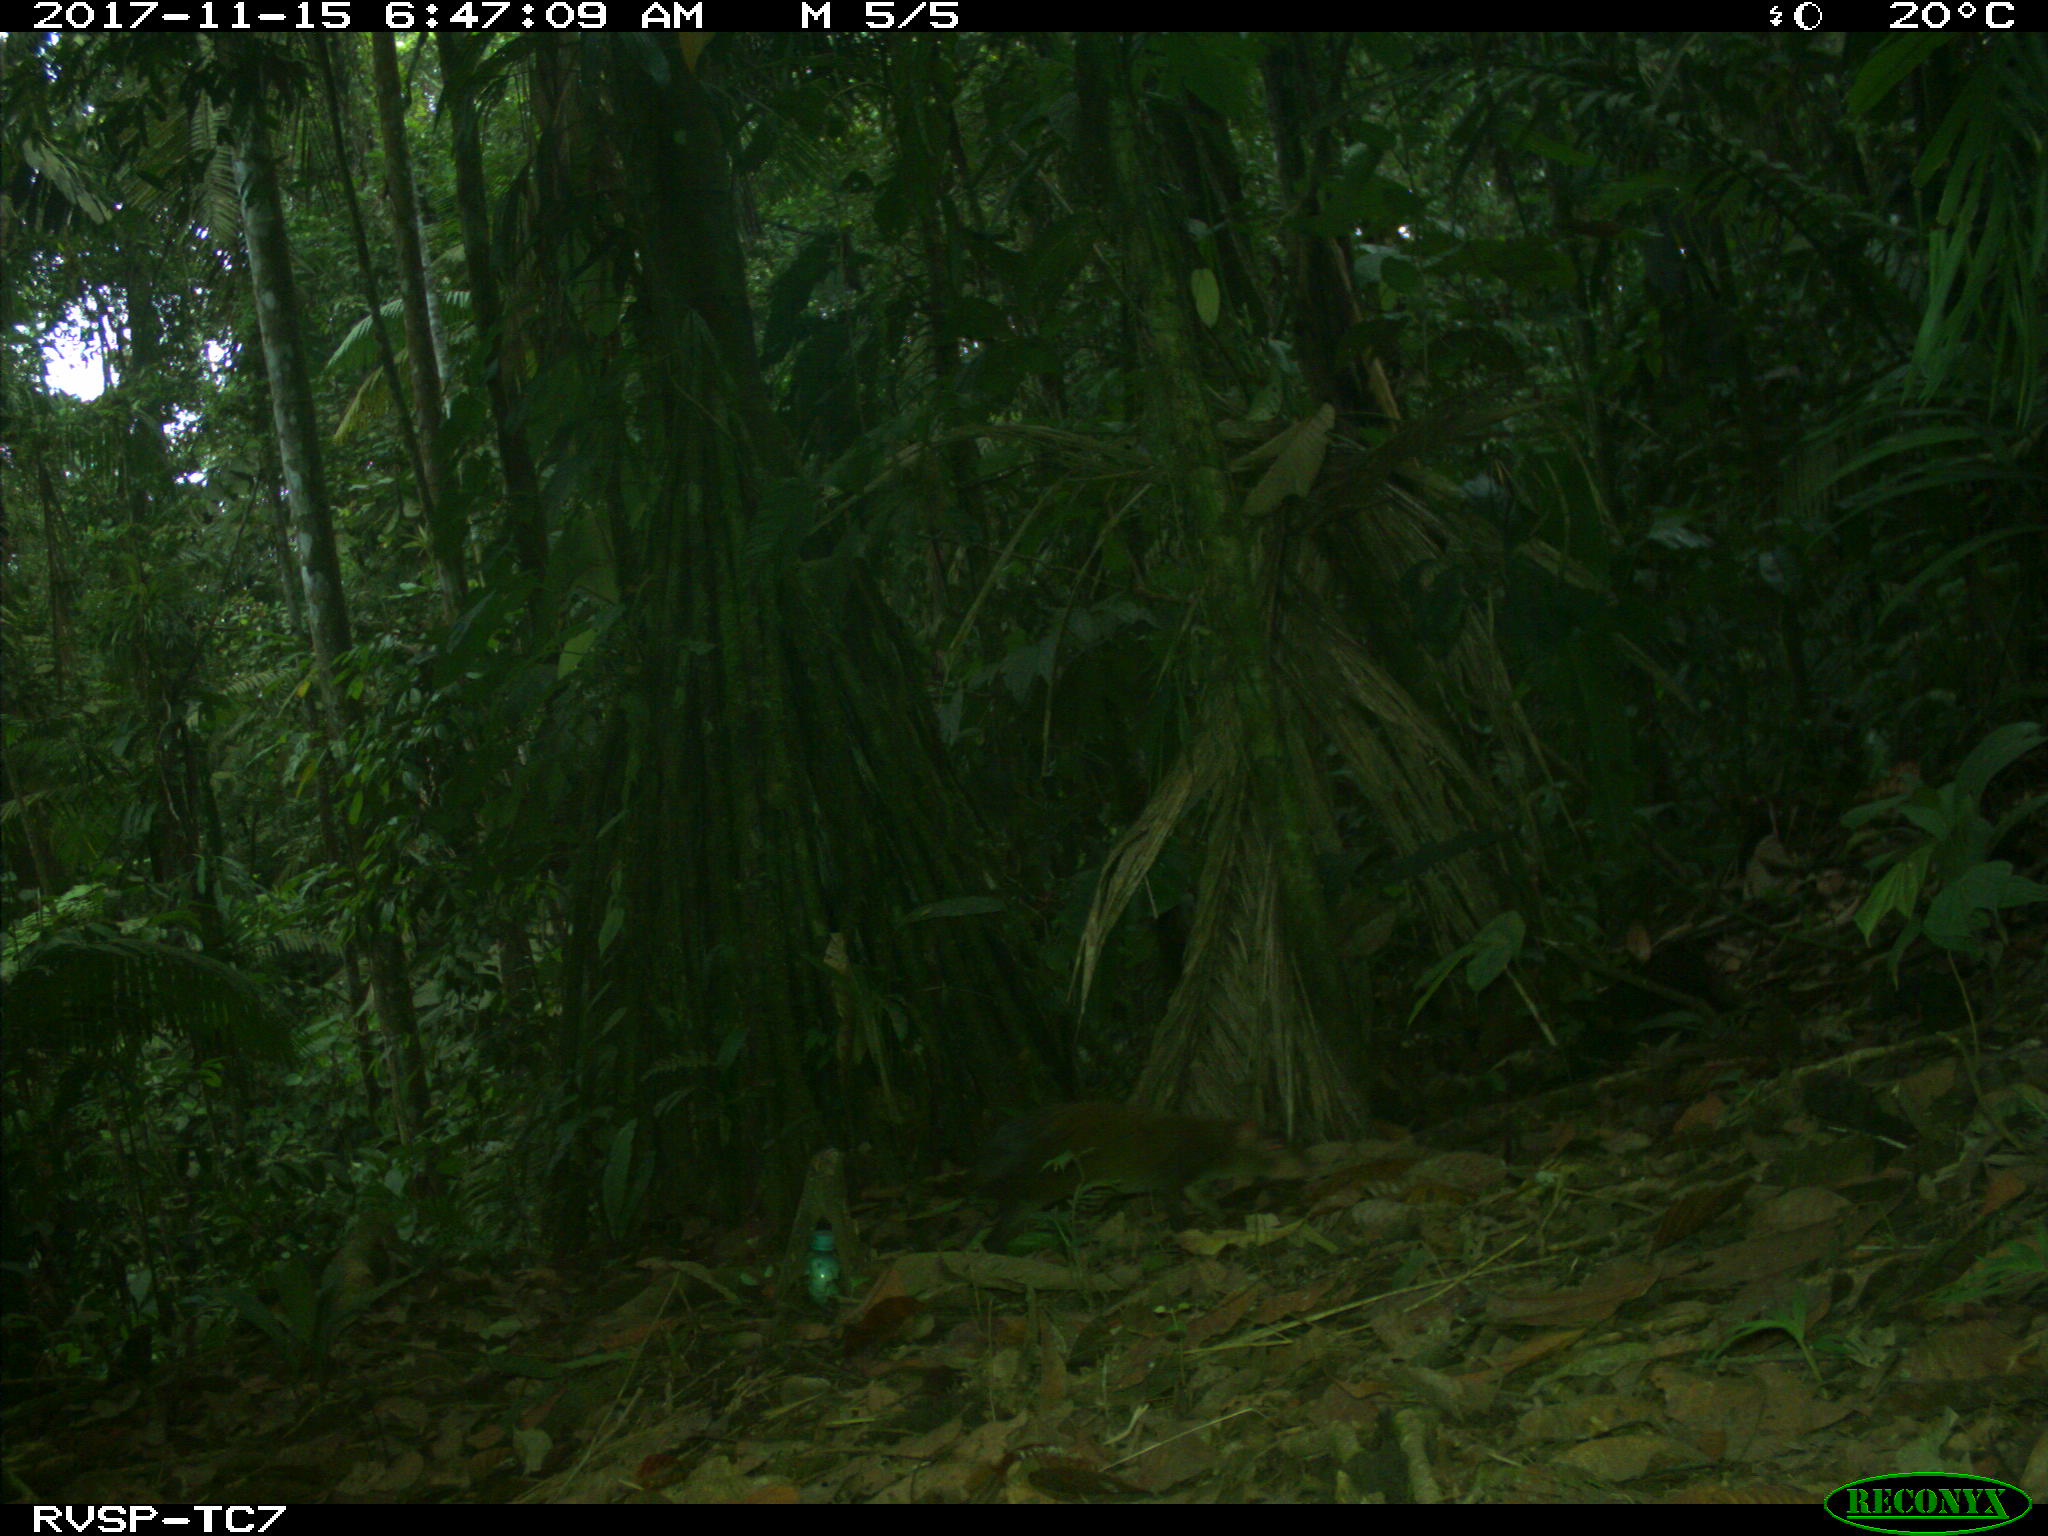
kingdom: Animalia
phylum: Chordata
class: Mammalia
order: Rodentia
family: Dasyproctidae
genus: Dasyprocta
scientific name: Dasyprocta punctata
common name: Central american agouti
